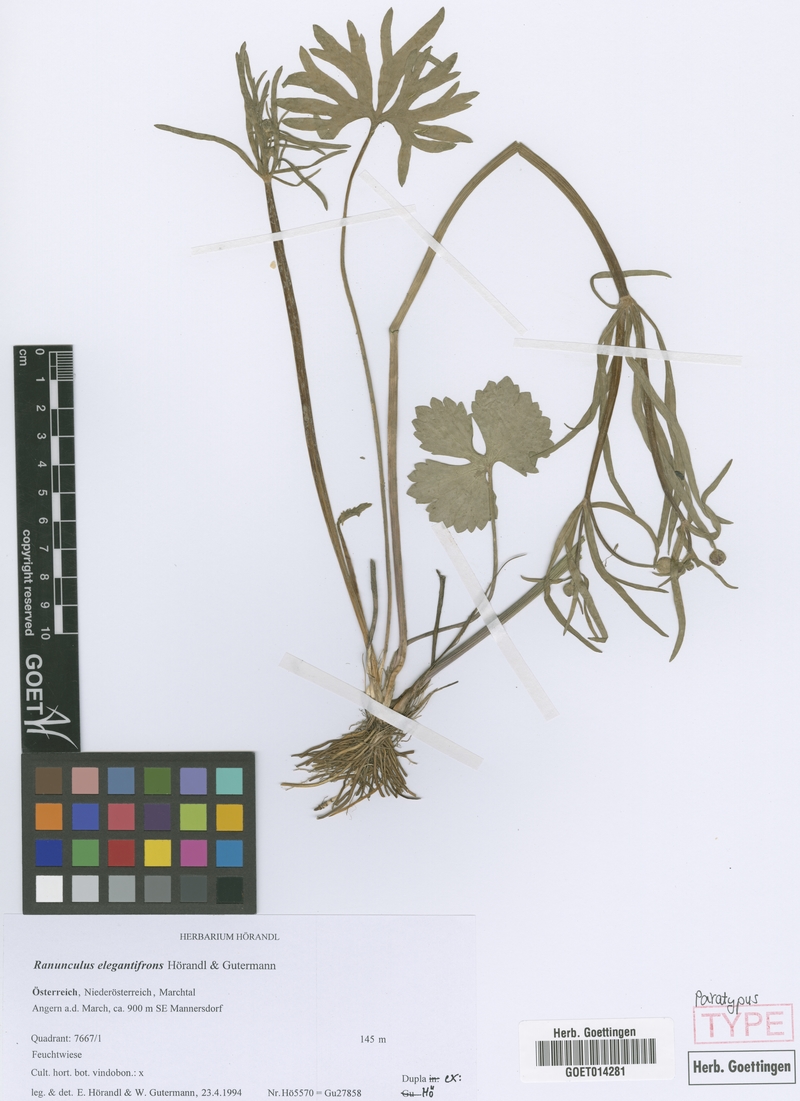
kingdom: Plantae
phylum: Tracheophyta
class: Magnoliopsida
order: Ranunculales
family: Ranunculaceae
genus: Ranunculus
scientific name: Ranunculus elegantifrons
